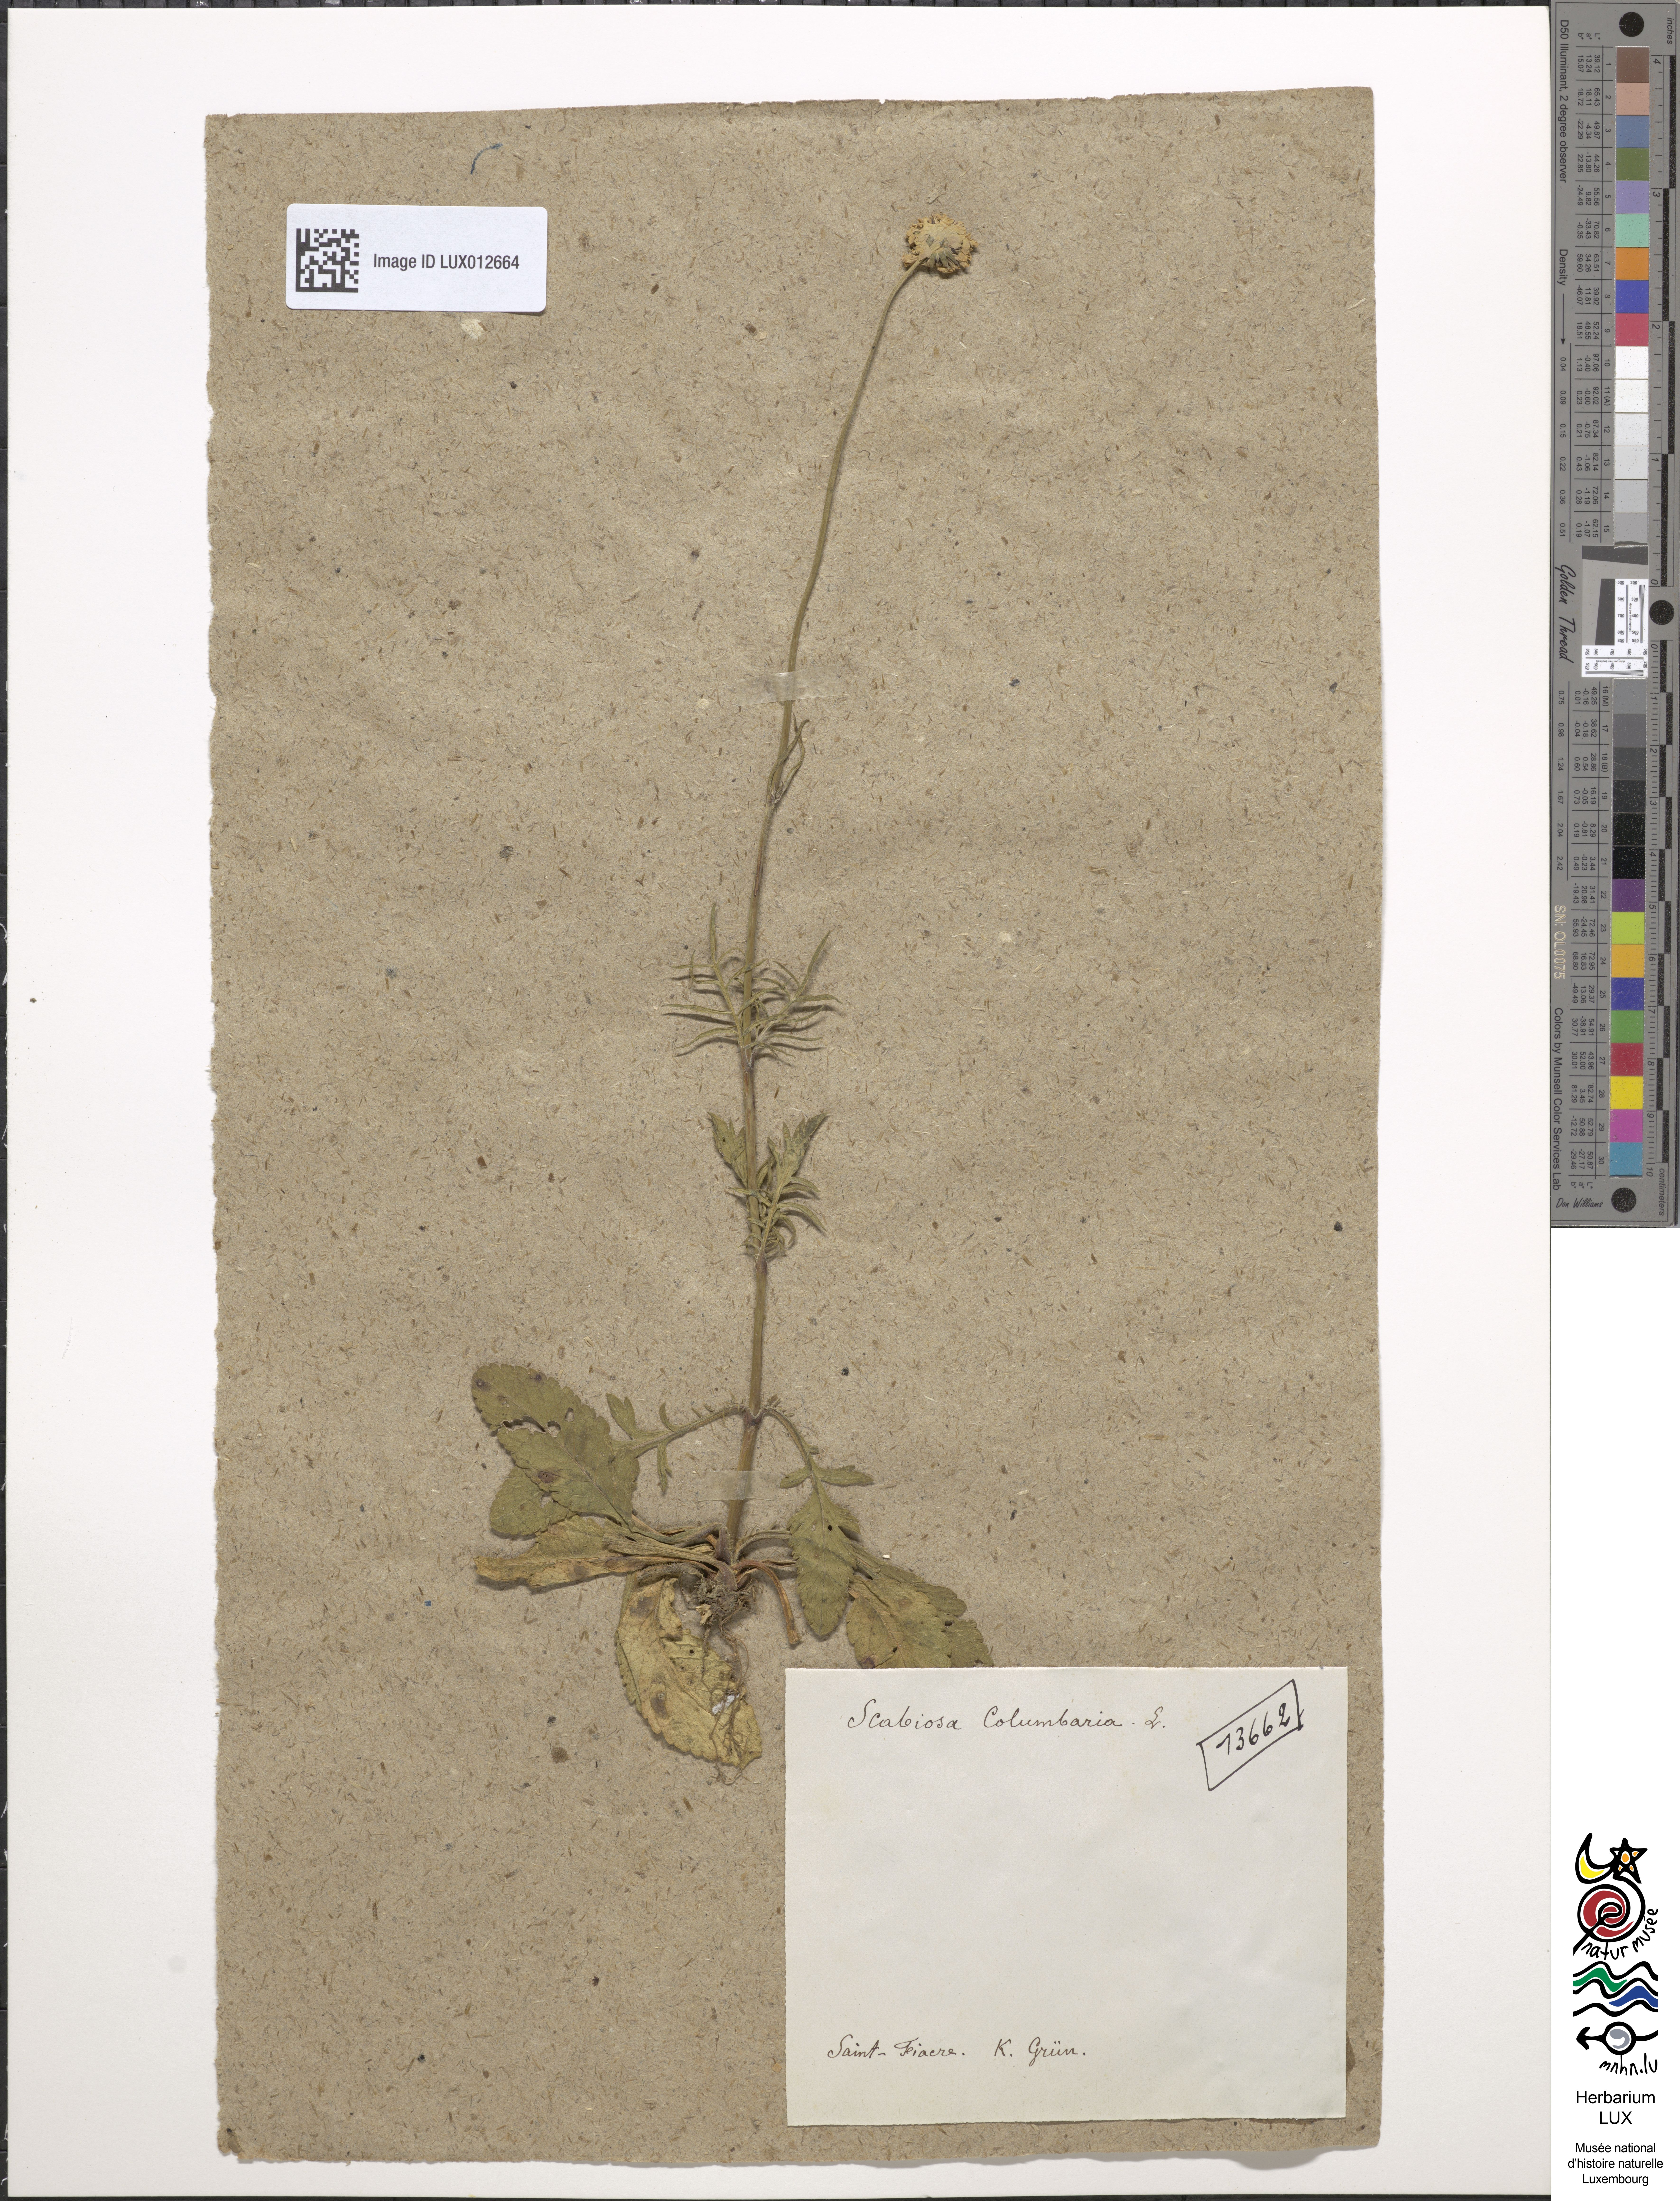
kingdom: Plantae
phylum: Tracheophyta
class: Magnoliopsida
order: Dipsacales
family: Caprifoliaceae
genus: Scabiosa
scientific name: Scabiosa columbaria
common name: Small scabious
